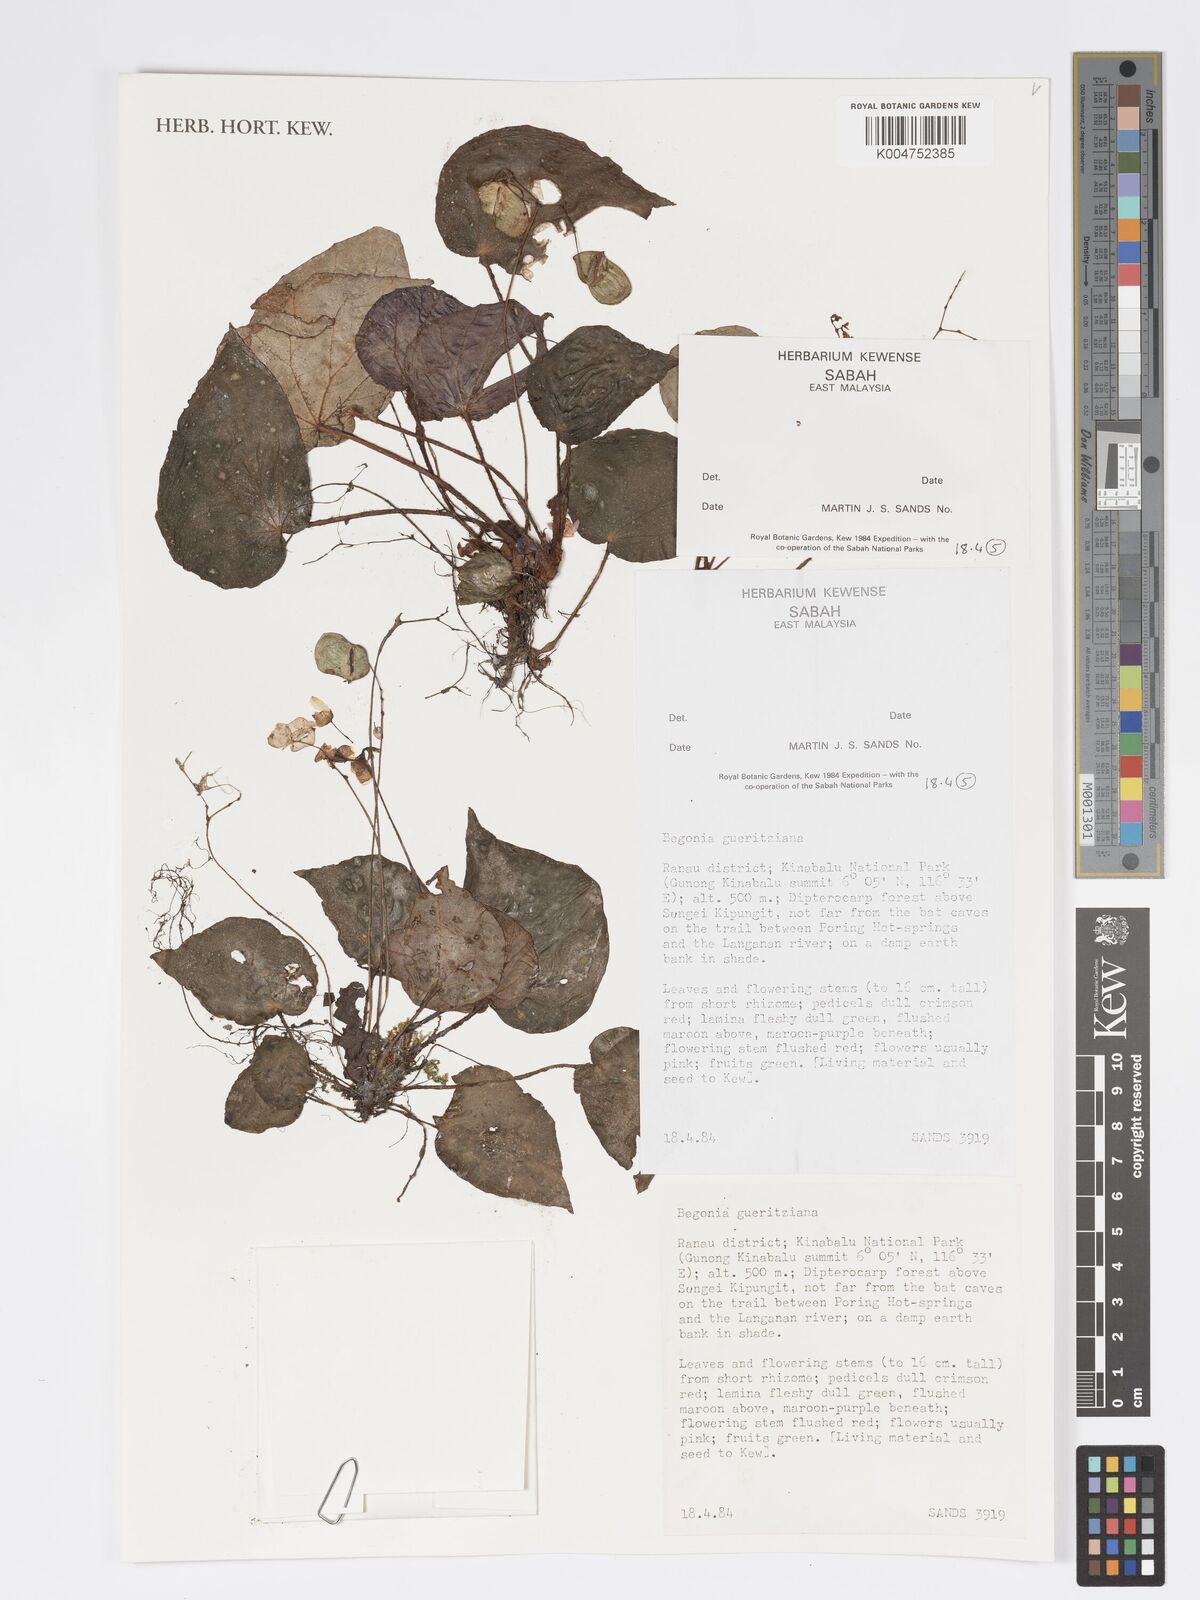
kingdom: Plantae
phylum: Tracheophyta
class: Magnoliopsida
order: Cucurbitales
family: Begoniaceae
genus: Begonia
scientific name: Begonia gueritziana
